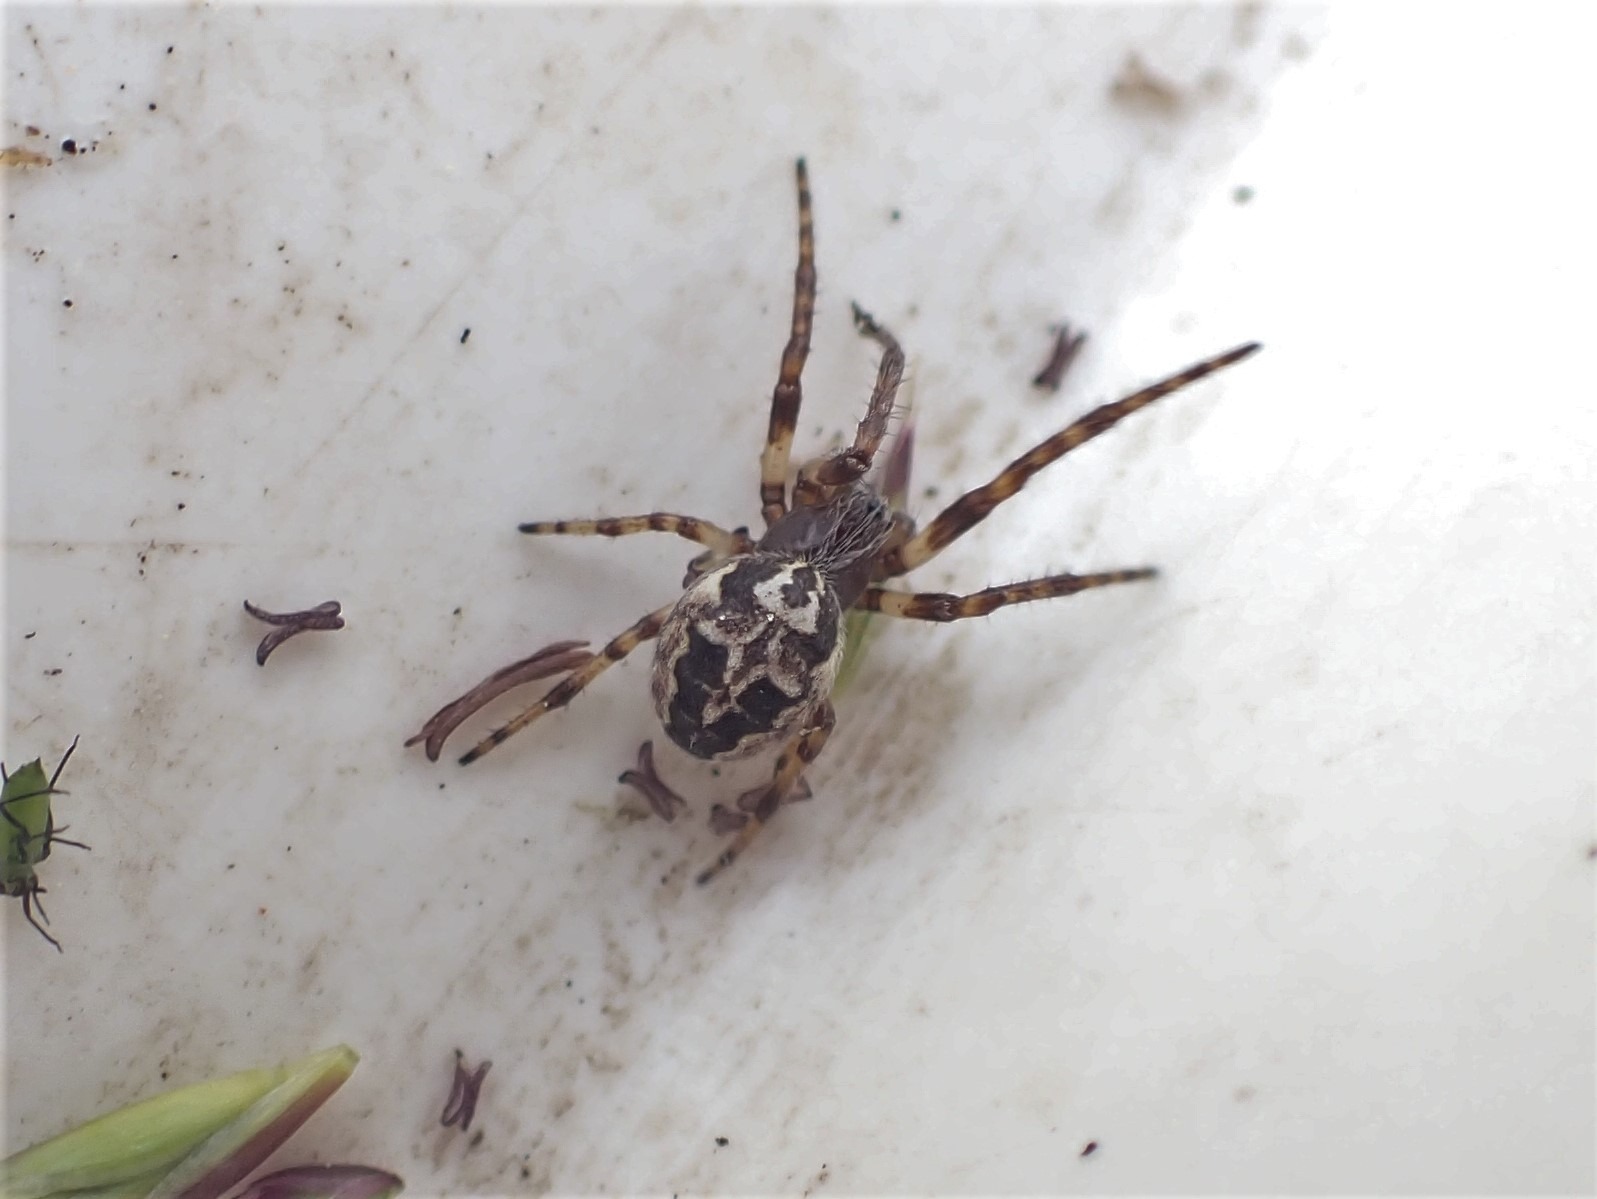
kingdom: Animalia
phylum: Arthropoda
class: Arachnida
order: Araneae
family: Araneidae
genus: Larinioides
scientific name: Larinioides cornutus
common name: Sivhjulspinder
